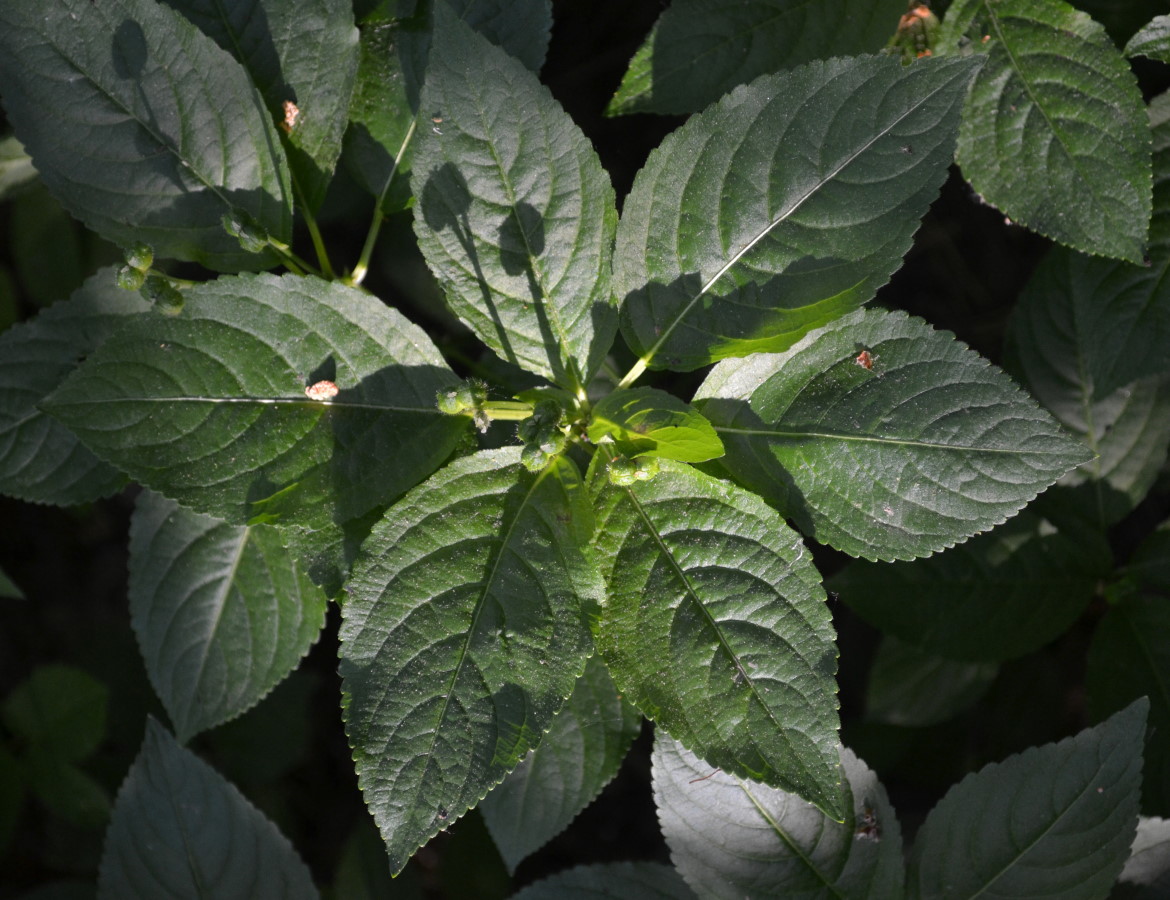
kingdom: Plantae
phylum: Tracheophyta
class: Magnoliopsida
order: Malpighiales
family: Euphorbiaceae
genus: Mercurialis
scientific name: Mercurialis perennis
